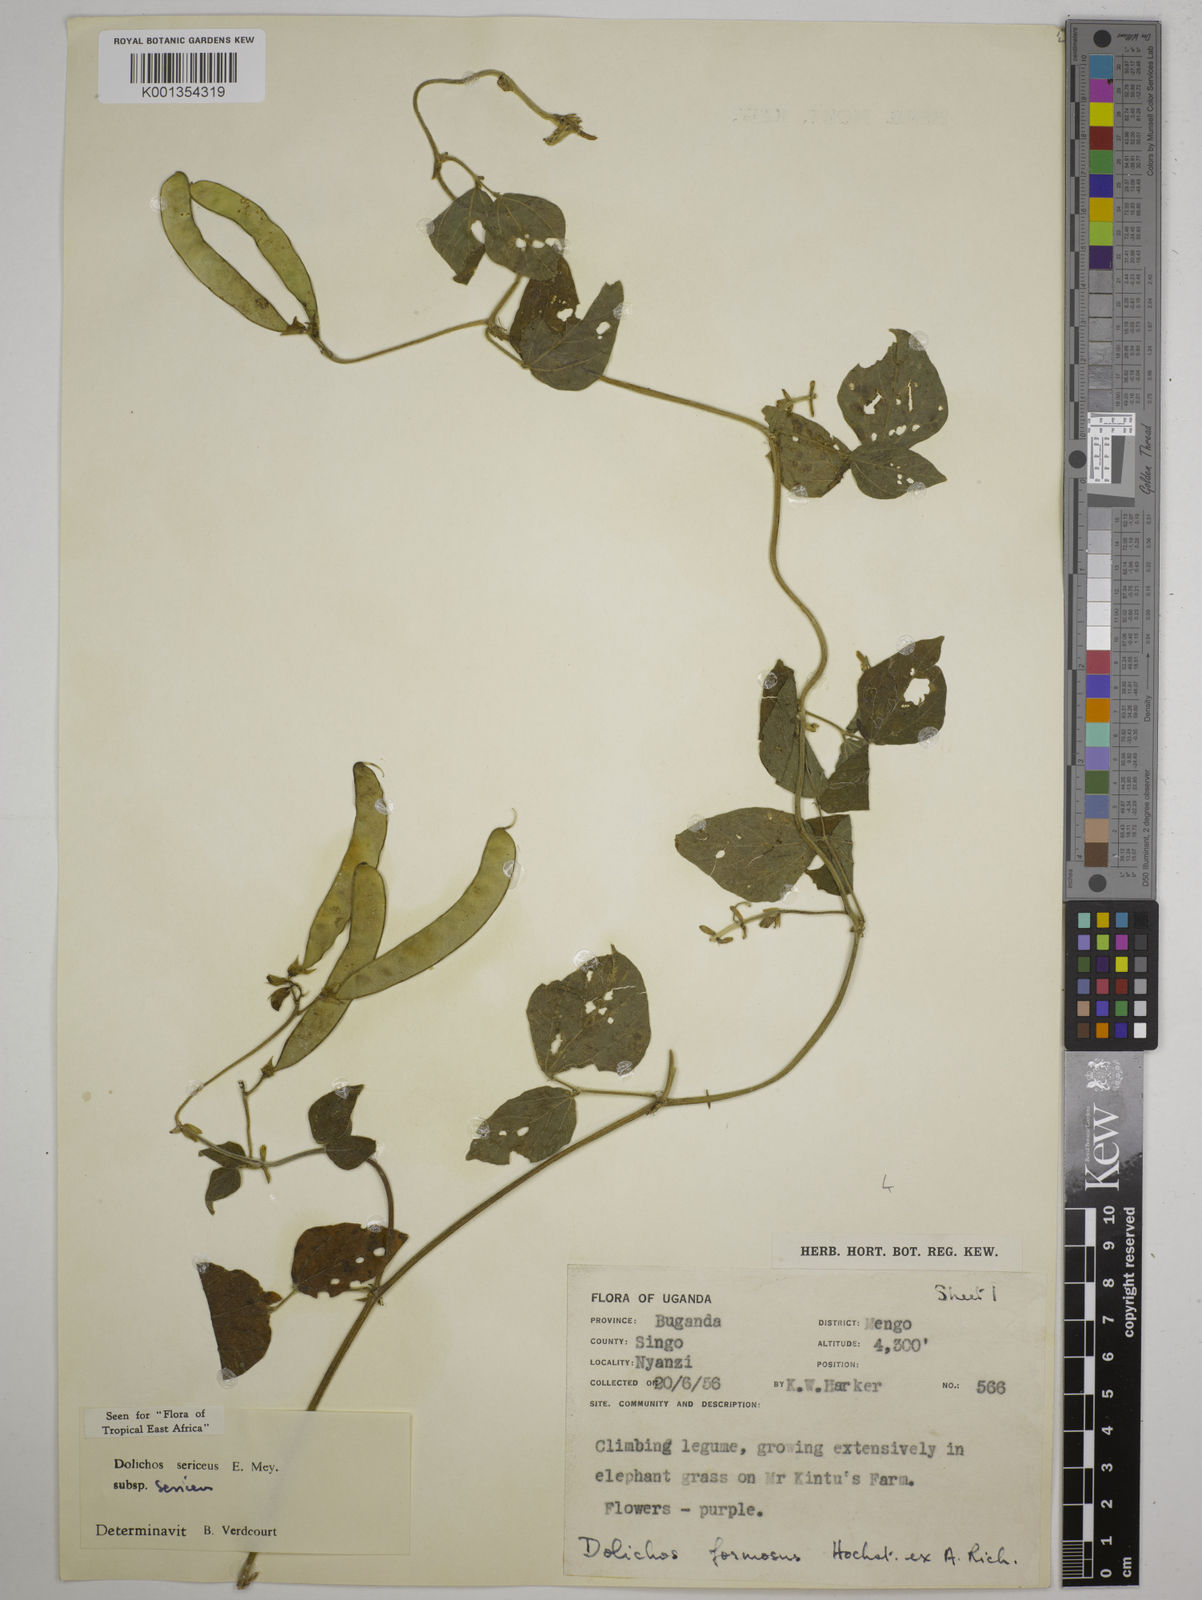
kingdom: Plantae
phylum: Tracheophyta
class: Magnoliopsida
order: Fabales
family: Fabaceae
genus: Dolichos
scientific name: Dolichos sericeus
